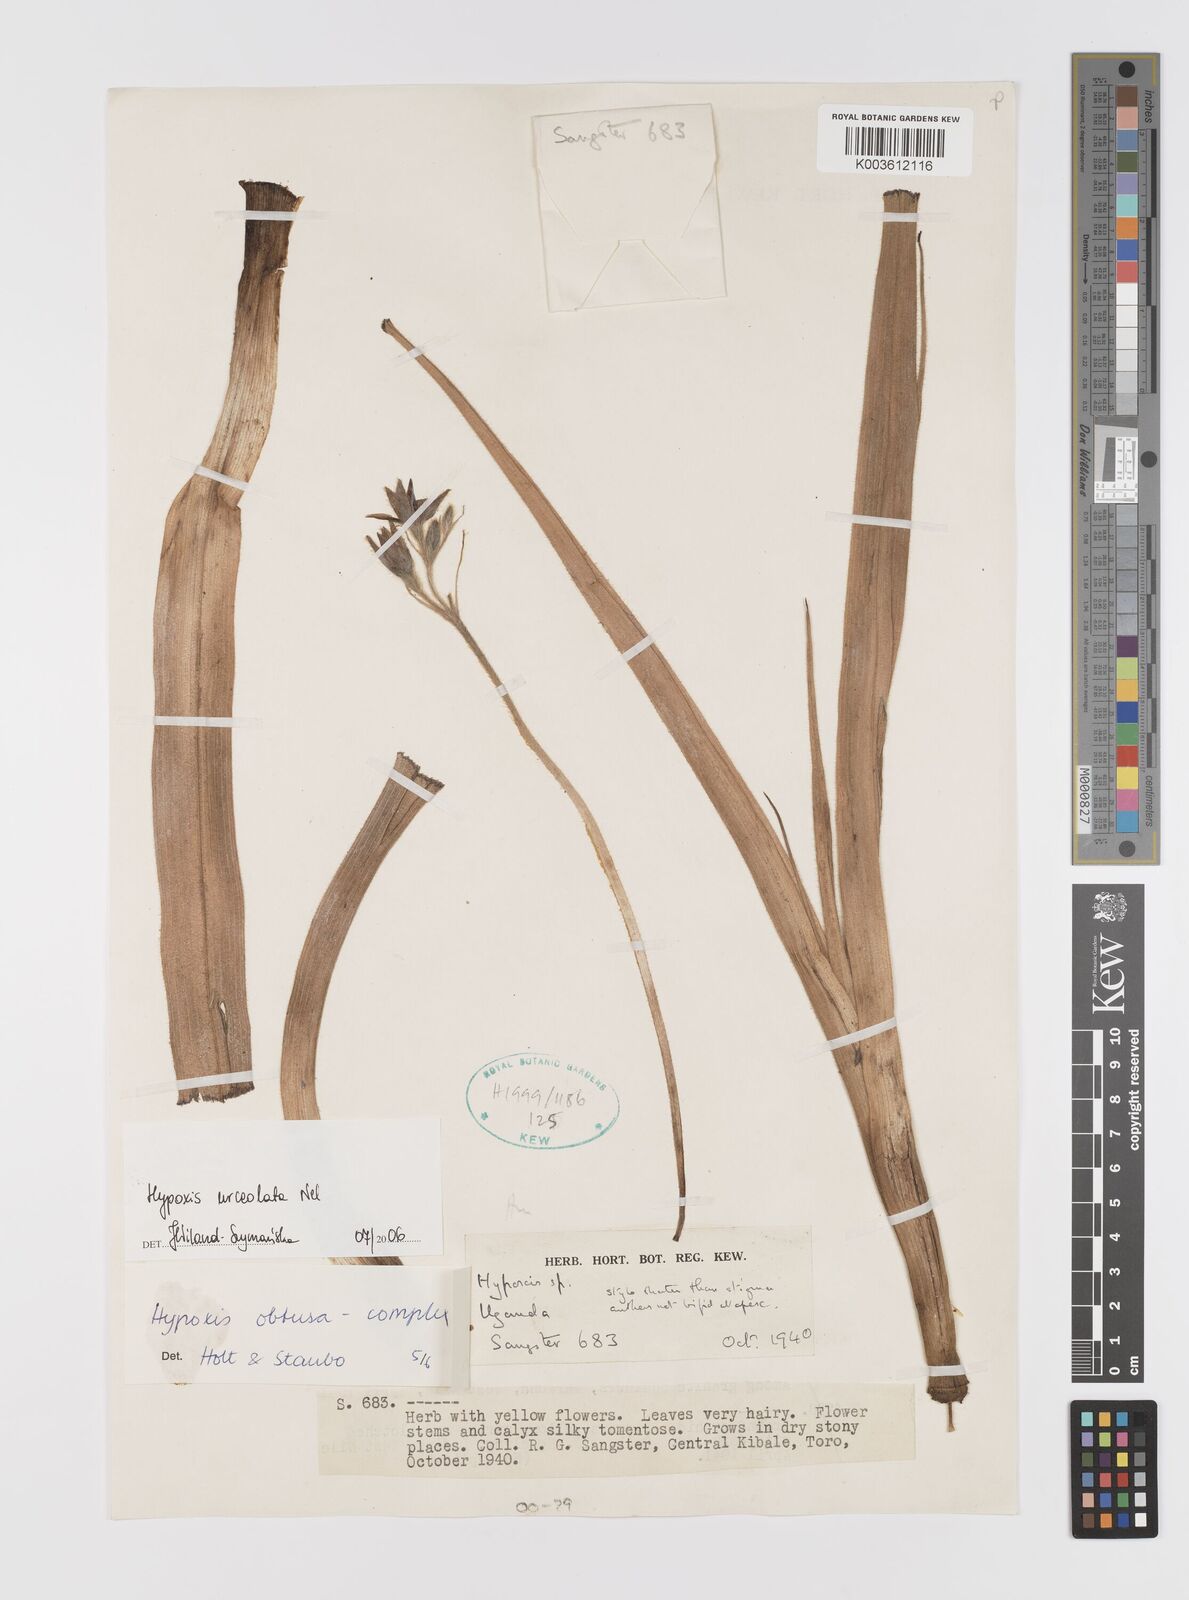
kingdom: Plantae
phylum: Tracheophyta
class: Liliopsida
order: Asparagales
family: Hypoxidaceae
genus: Hypoxis
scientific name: Hypoxis urceolata
